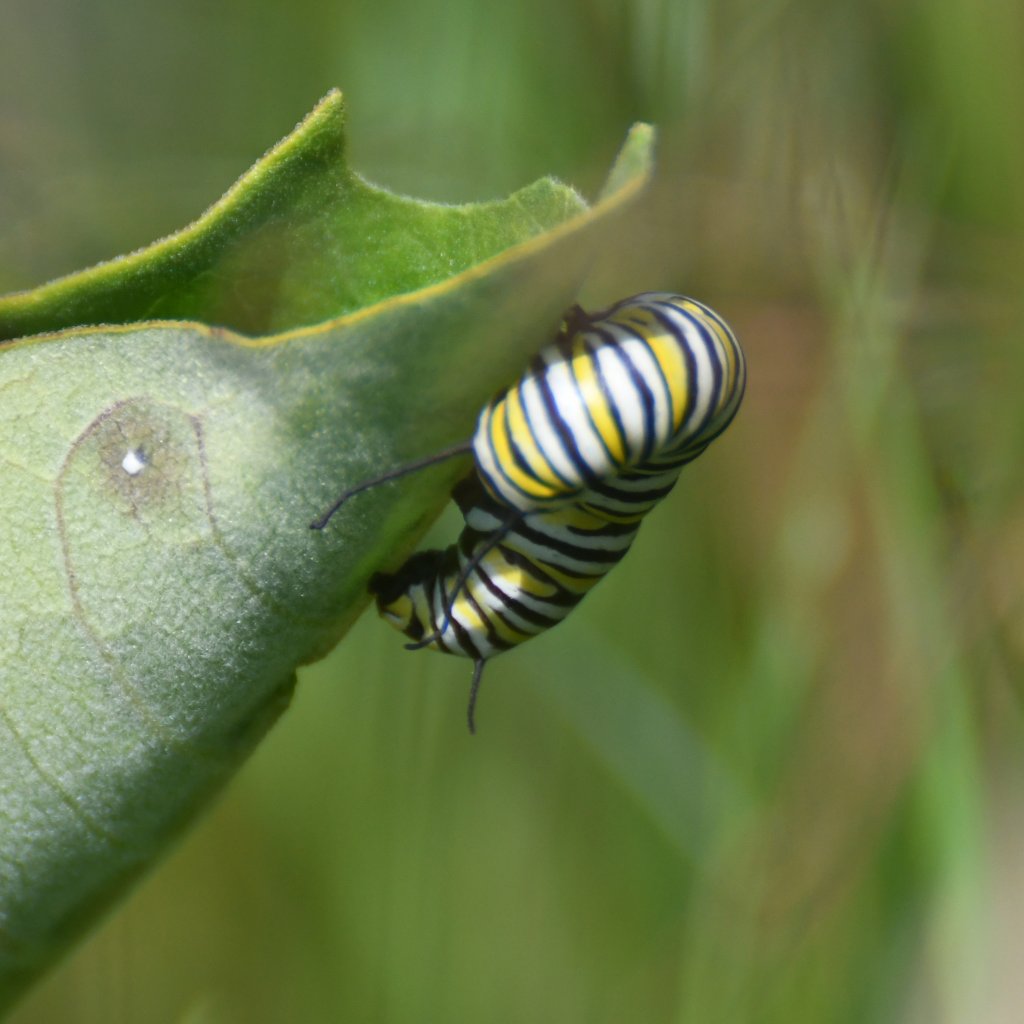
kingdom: Animalia
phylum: Arthropoda
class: Insecta
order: Lepidoptera
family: Nymphalidae
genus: Danaus
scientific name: Danaus plexippus
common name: Monarch
